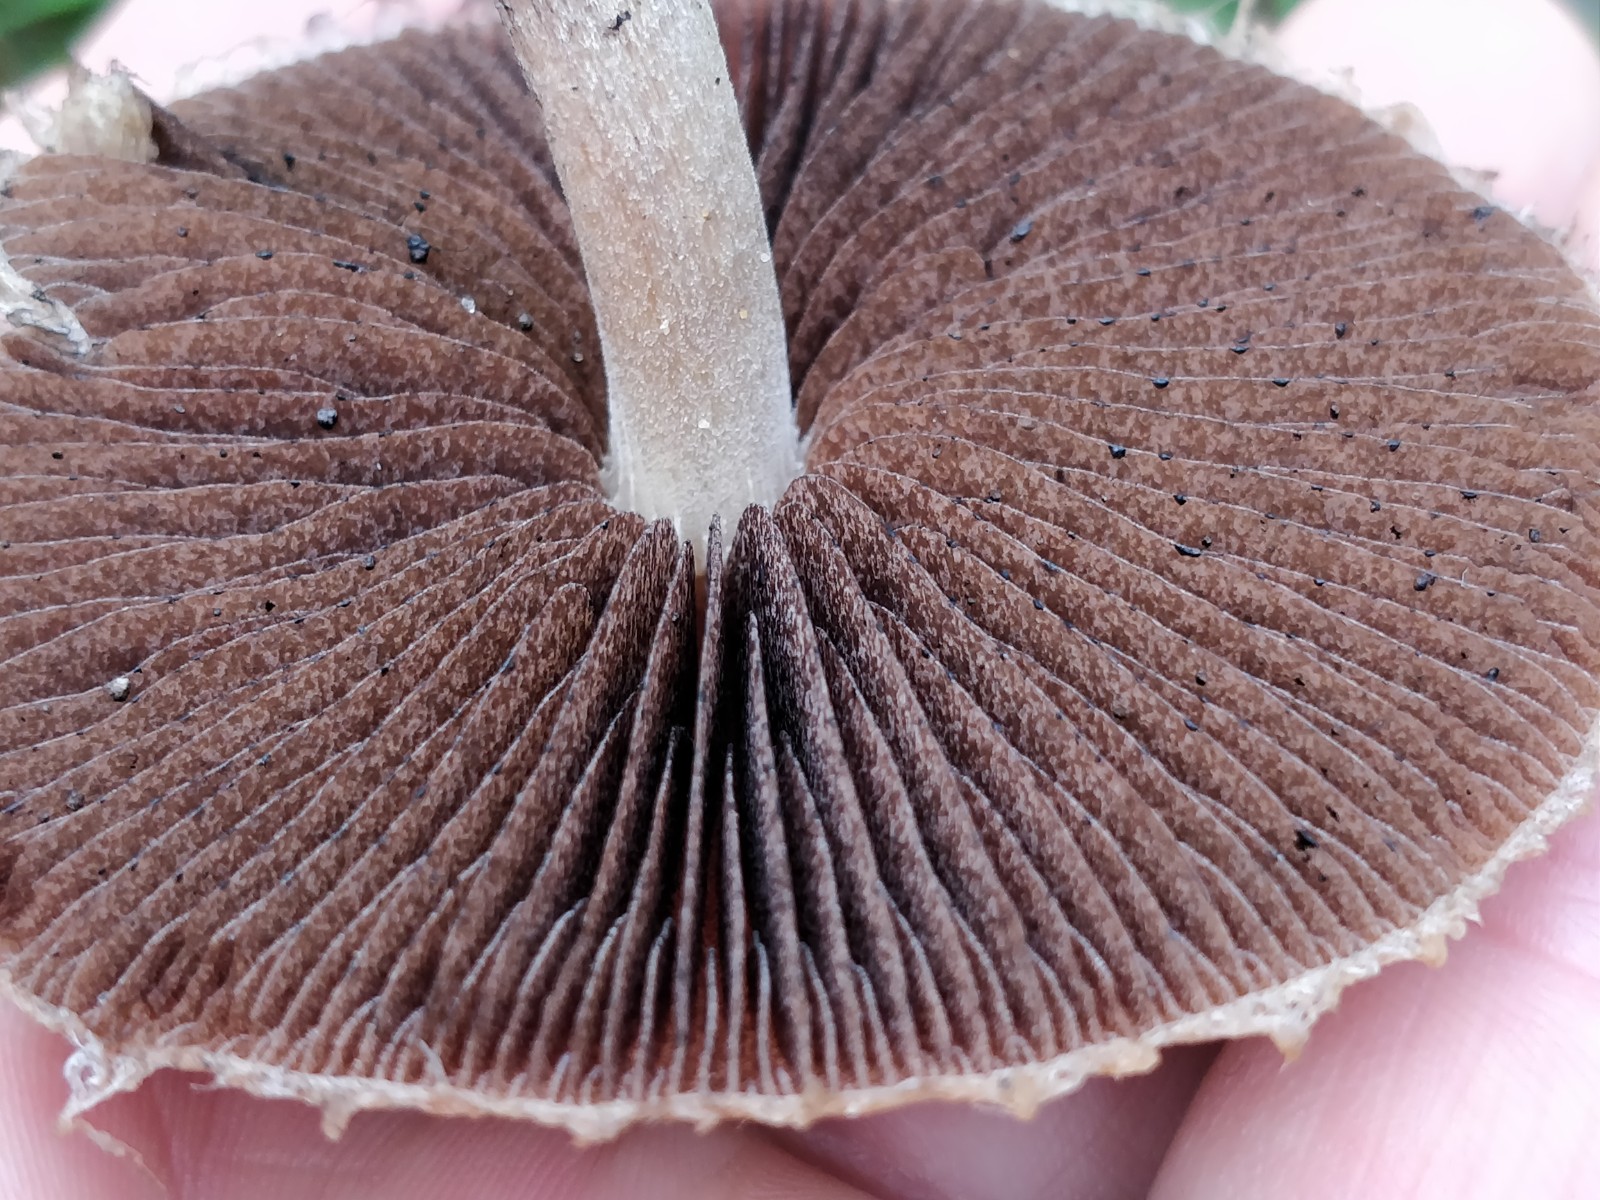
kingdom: Fungi
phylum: Basidiomycota
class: Agaricomycetes
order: Agaricales
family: Psathyrellaceae
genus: Lacrymaria
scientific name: Lacrymaria lacrymabunda
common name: grædende mørkhat
